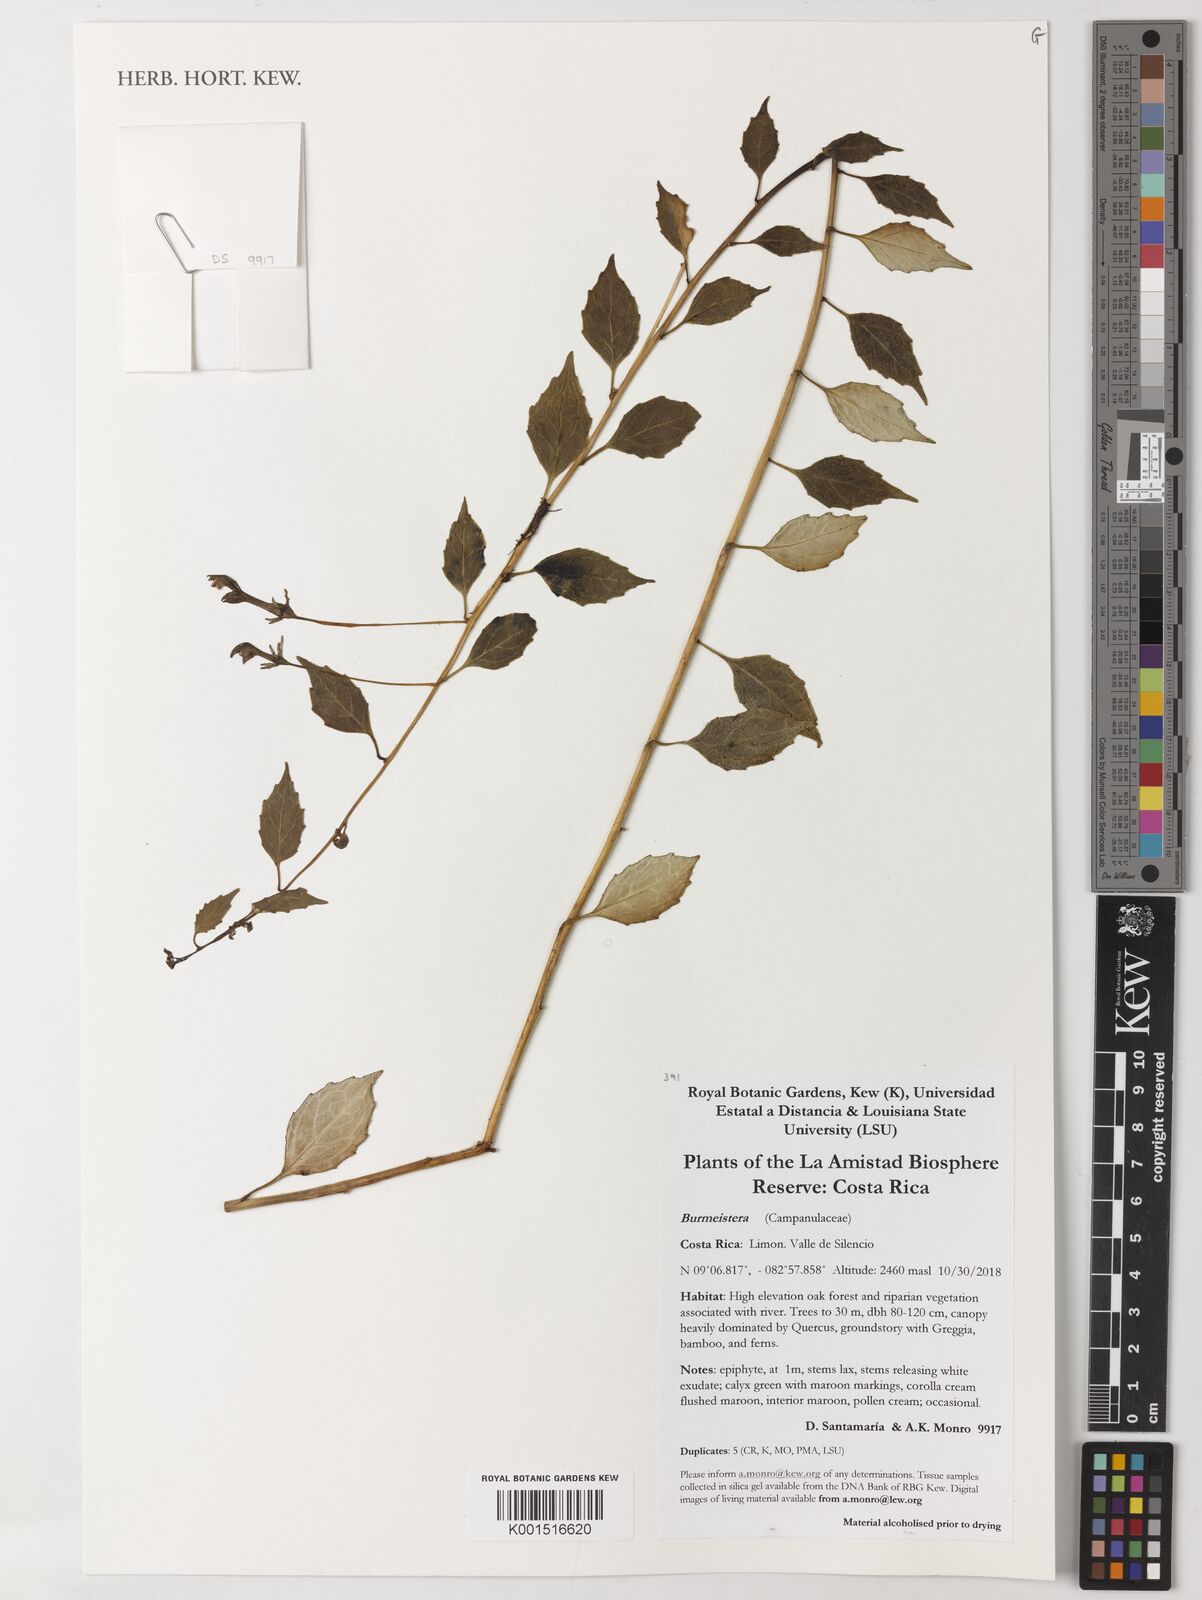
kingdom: Plantae
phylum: Tracheophyta
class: Magnoliopsida
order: Asterales
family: Campanulaceae
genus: Burmeistera
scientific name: Burmeistera
